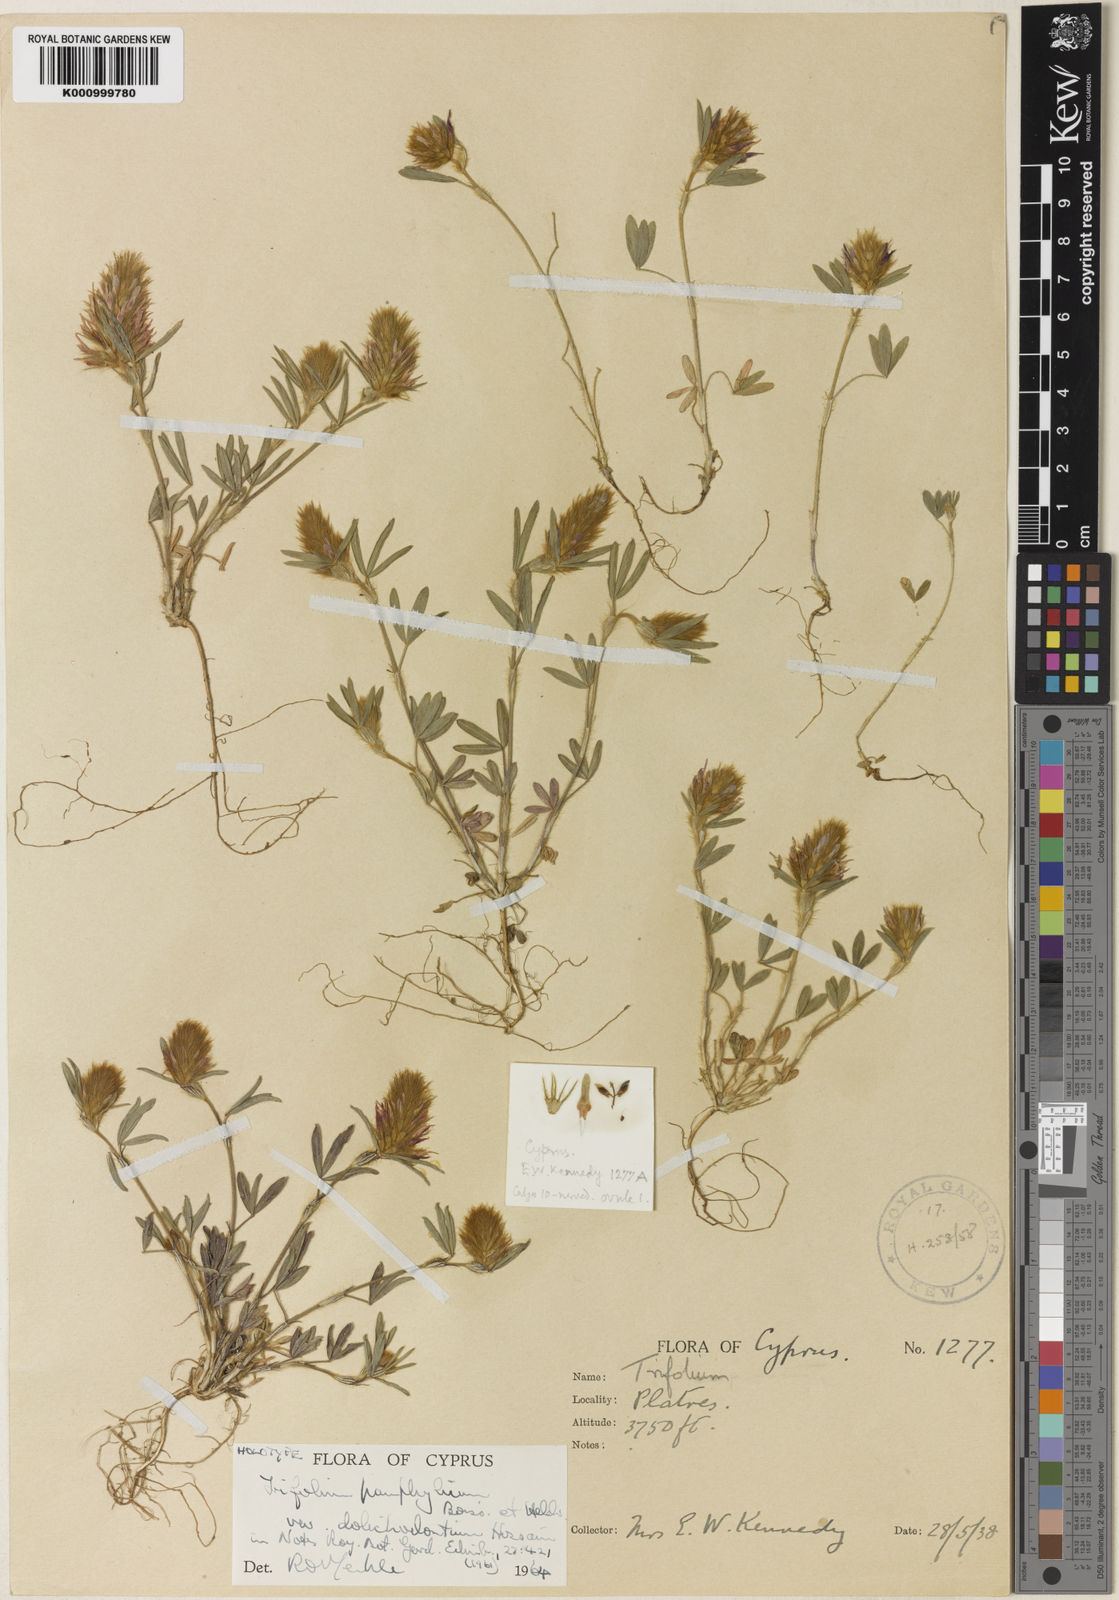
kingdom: Plantae
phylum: Tracheophyta
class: Magnoliopsida
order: Fabales
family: Fabaceae
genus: Trifolium
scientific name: Trifolium pamphylicum
